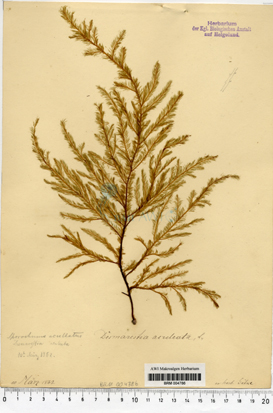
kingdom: Chromista
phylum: Ochrophyta
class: Phaeophyceae
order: Desmarestiales
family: Desmarestiaceae
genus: Desmarestia
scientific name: Desmarestia aculeata
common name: Witch's hair
